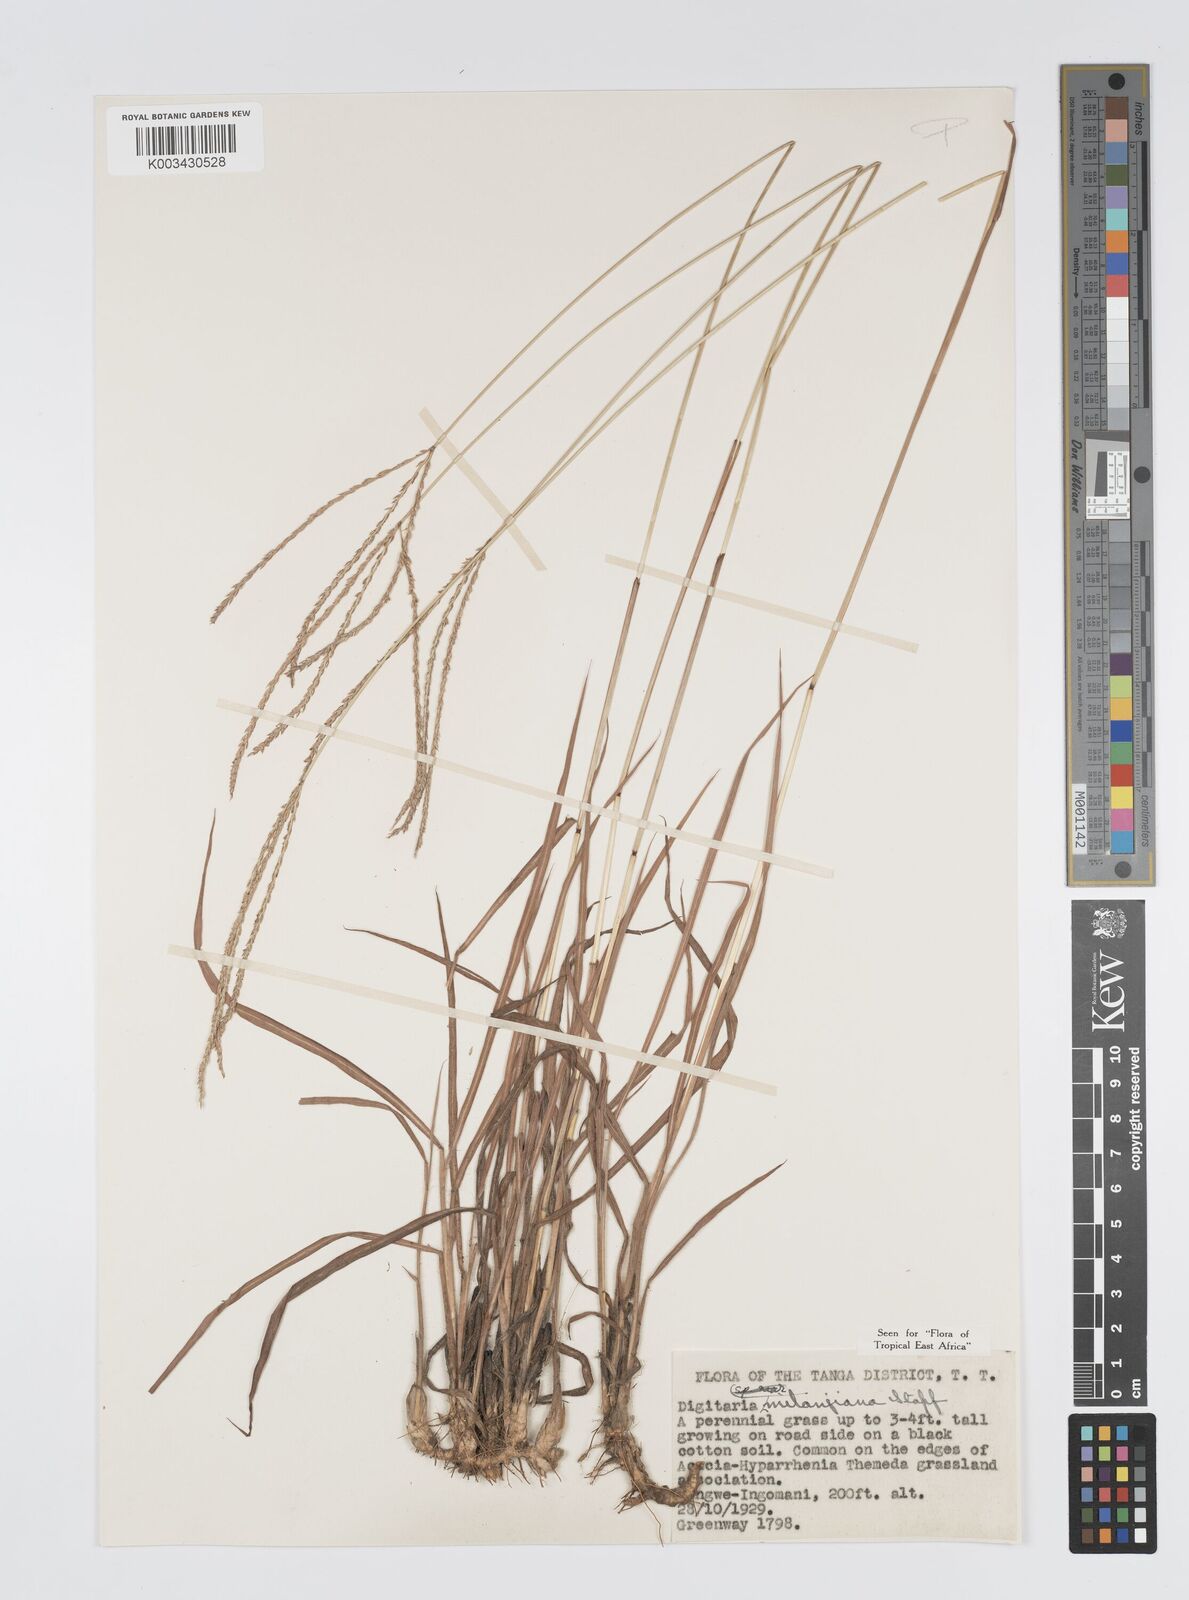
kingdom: Plantae
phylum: Tracheophyta
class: Liliopsida
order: Poales
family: Poaceae
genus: Digitaria
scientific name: Digitaria milanjiana
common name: Madagascar crabgrass
